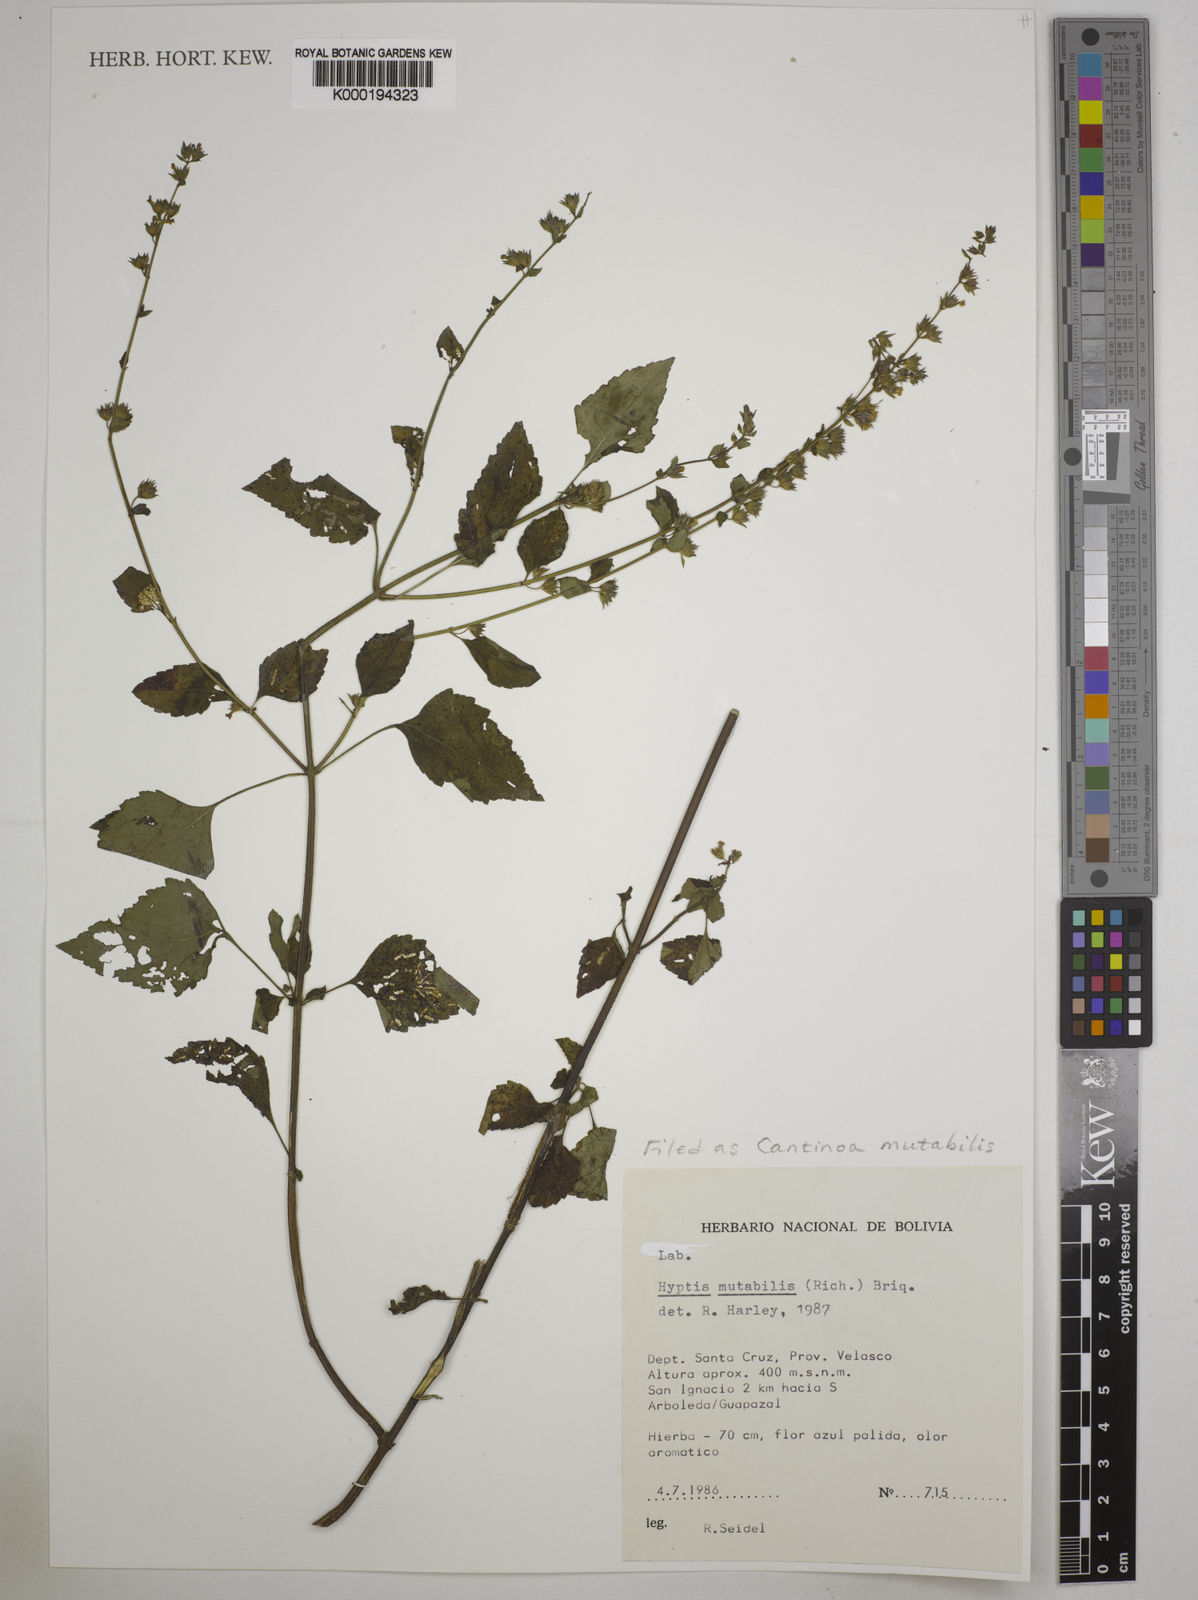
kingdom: Plantae
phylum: Tracheophyta
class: Magnoliopsida
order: Lamiales
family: Lamiaceae
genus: Cantinoa
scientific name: Cantinoa mutabilis
